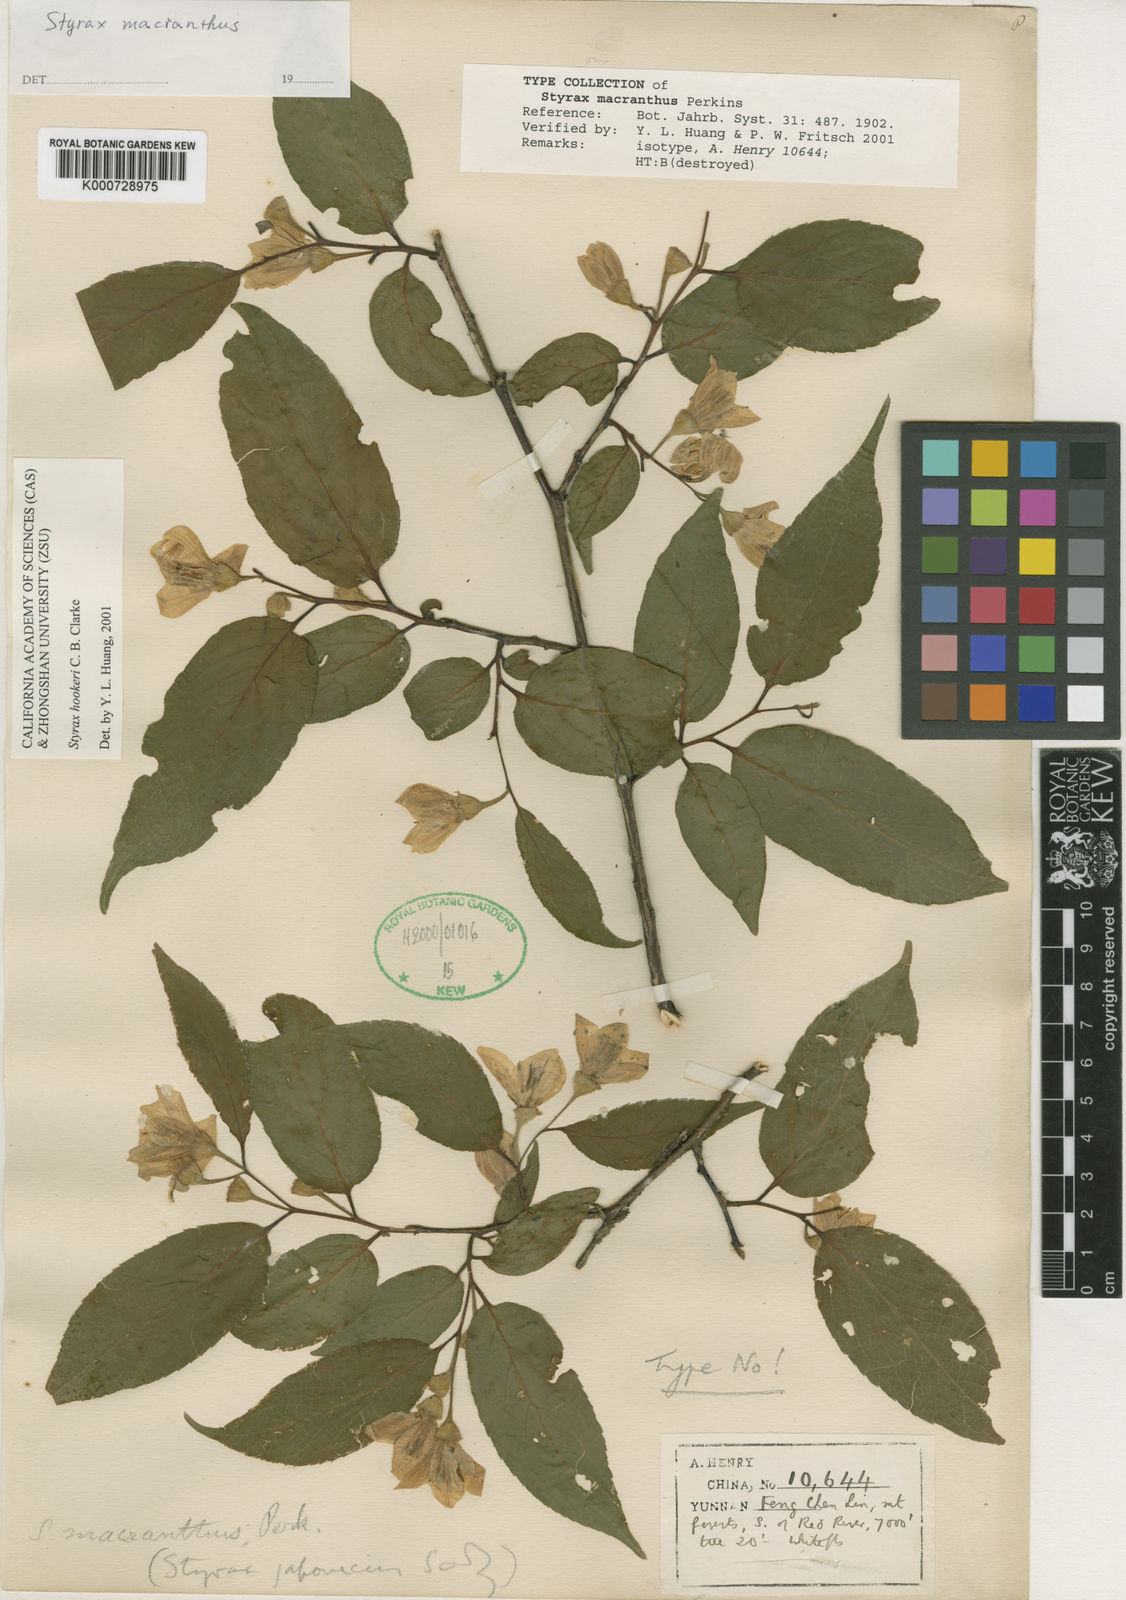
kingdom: Plantae
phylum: Tracheophyta
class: Magnoliopsida
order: Ericales
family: Styracaceae
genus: Styrax
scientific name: Styrax hookeri
